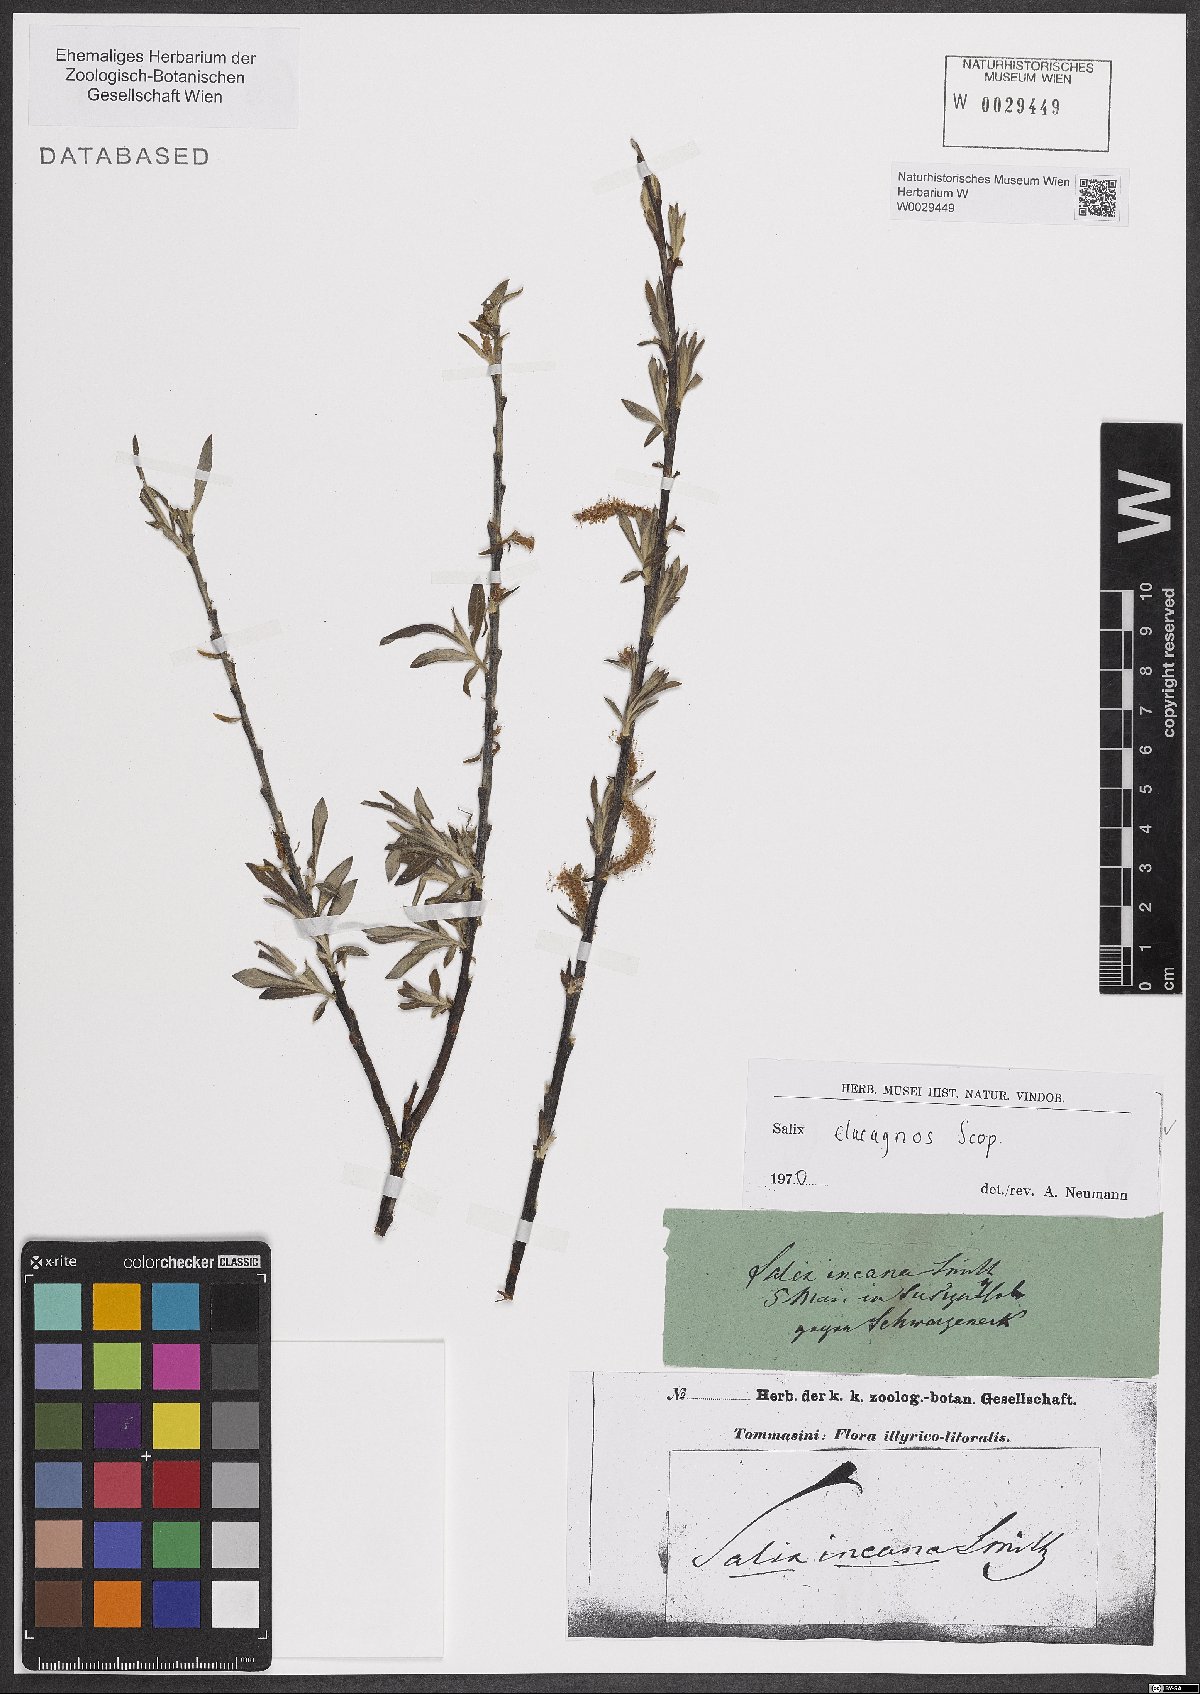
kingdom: Plantae
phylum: Tracheophyta
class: Magnoliopsida
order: Malpighiales
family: Salicaceae
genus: Salix
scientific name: Salix eleagnos
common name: Elaeagnus willow
